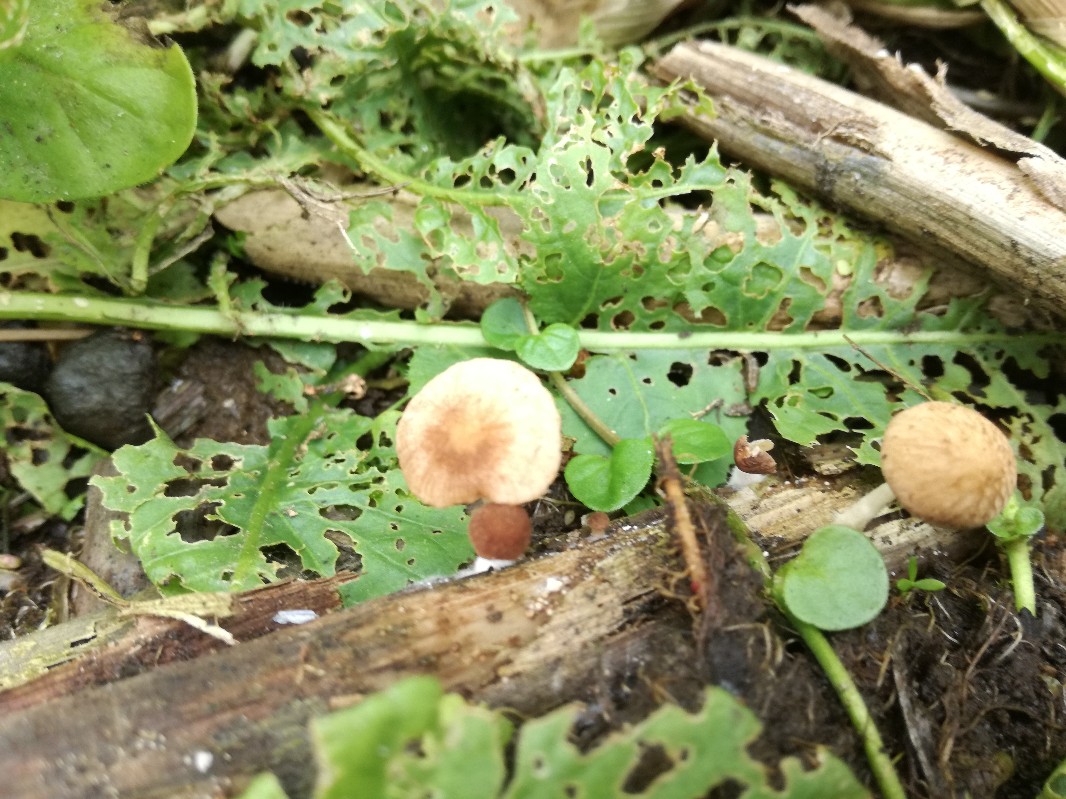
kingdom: Fungi
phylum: Basidiomycota
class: Agaricomycetes
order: Agaricales
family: Psathyrellaceae
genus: Candolleomyces
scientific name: Candolleomyces typhae
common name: dunhammer-mørkhat
